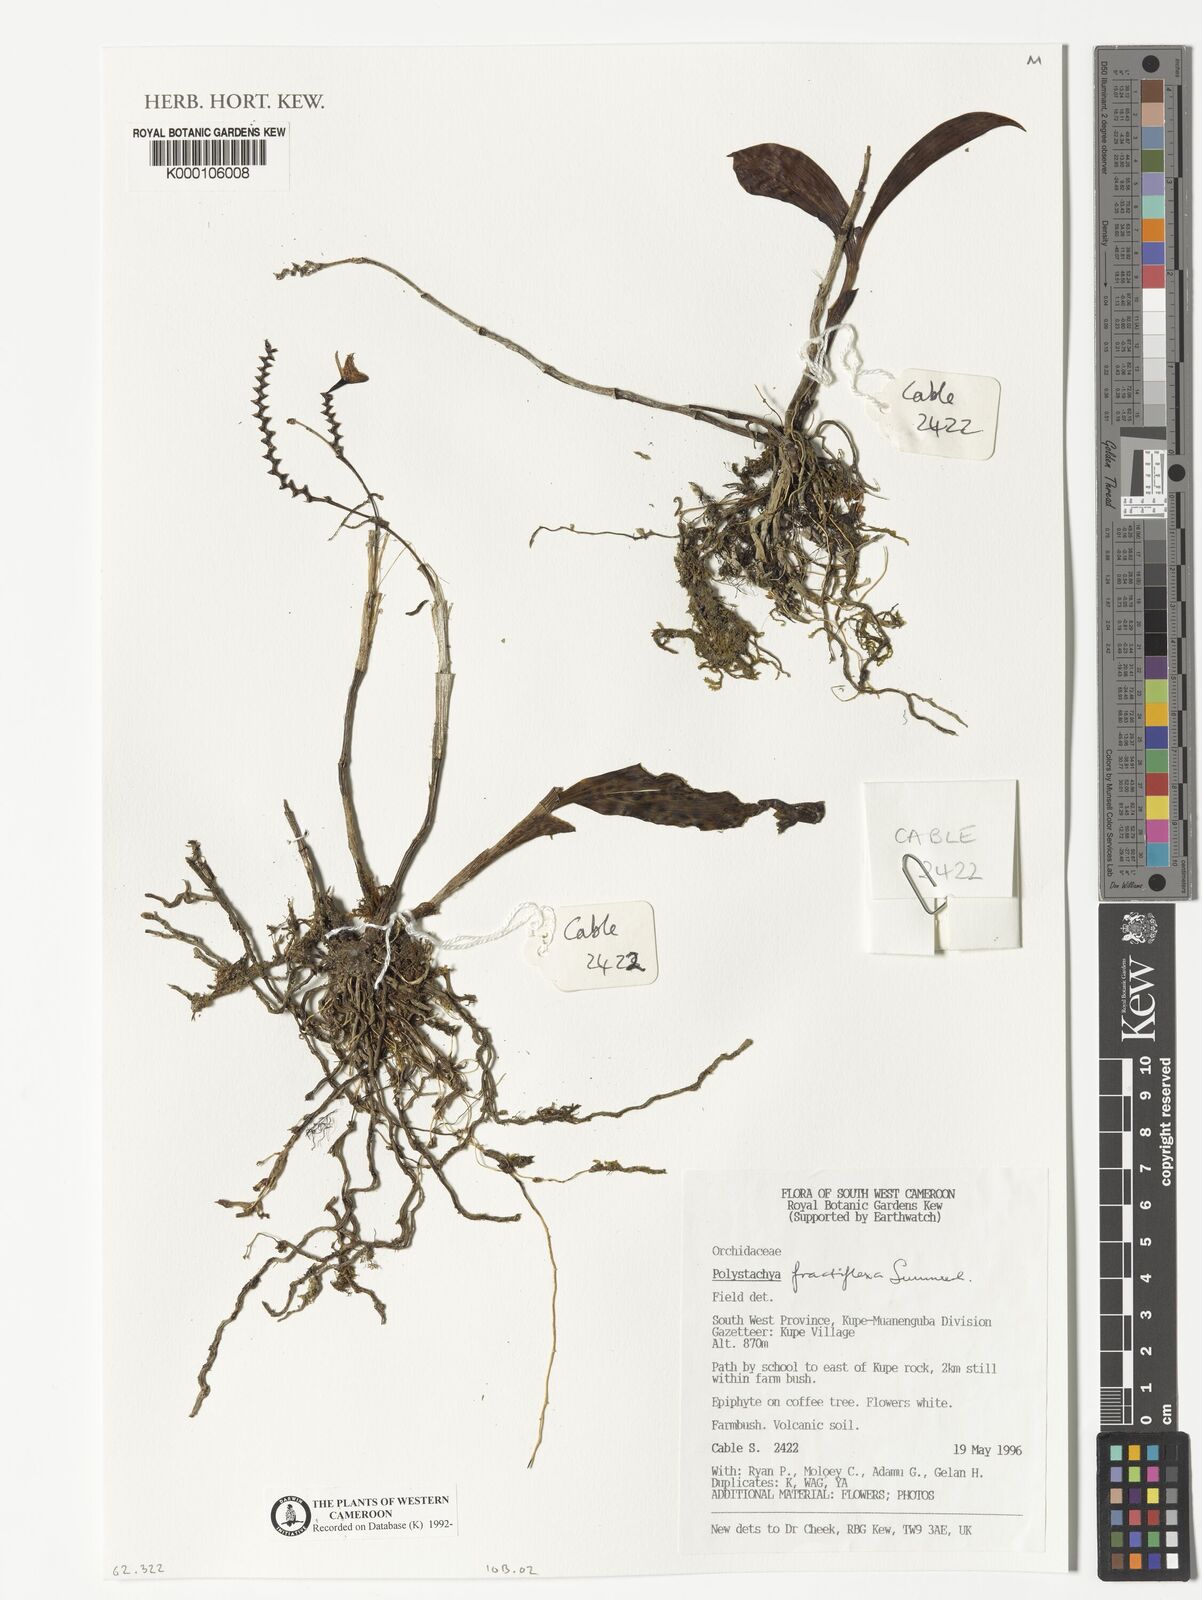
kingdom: Plantae
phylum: Tracheophyta
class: Liliopsida
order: Asparagales
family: Orchidaceae
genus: Polystachya
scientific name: Polystachya fractiflexa
